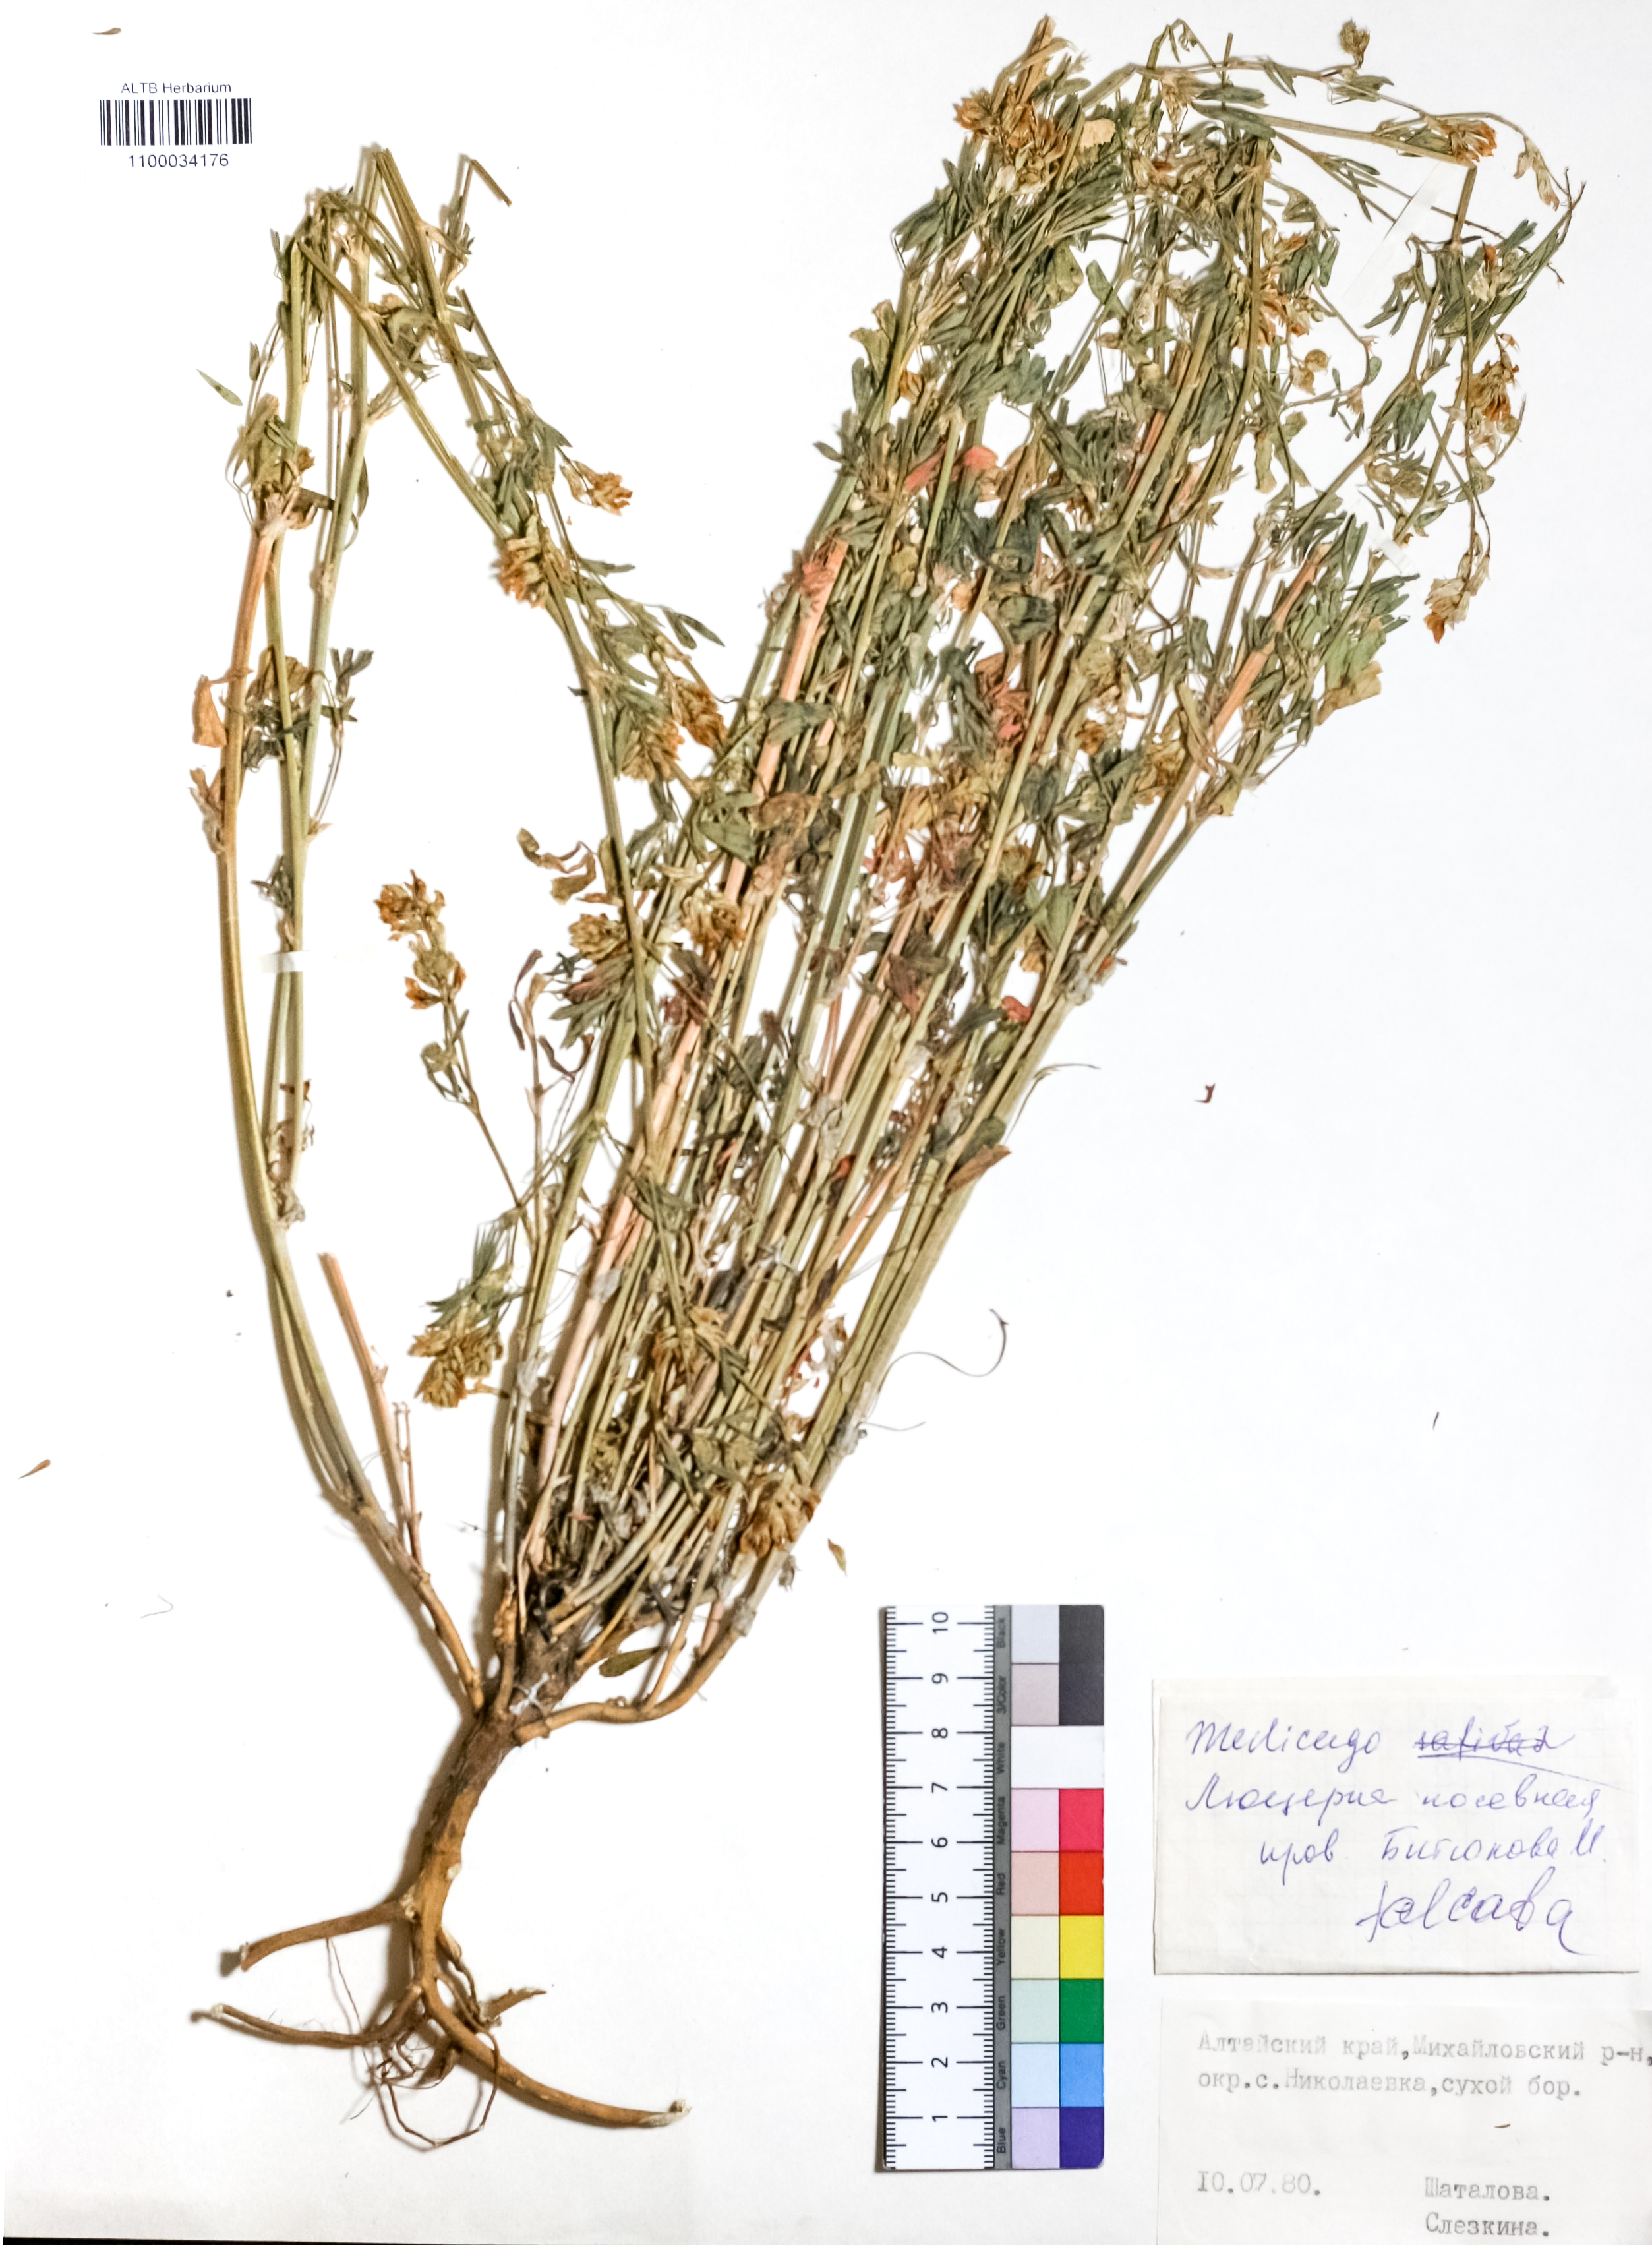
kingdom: Plantae
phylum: Tracheophyta
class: Magnoliopsida
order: Fabales
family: Fabaceae
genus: Medicago
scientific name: Medicago falcata
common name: Sickle medick
